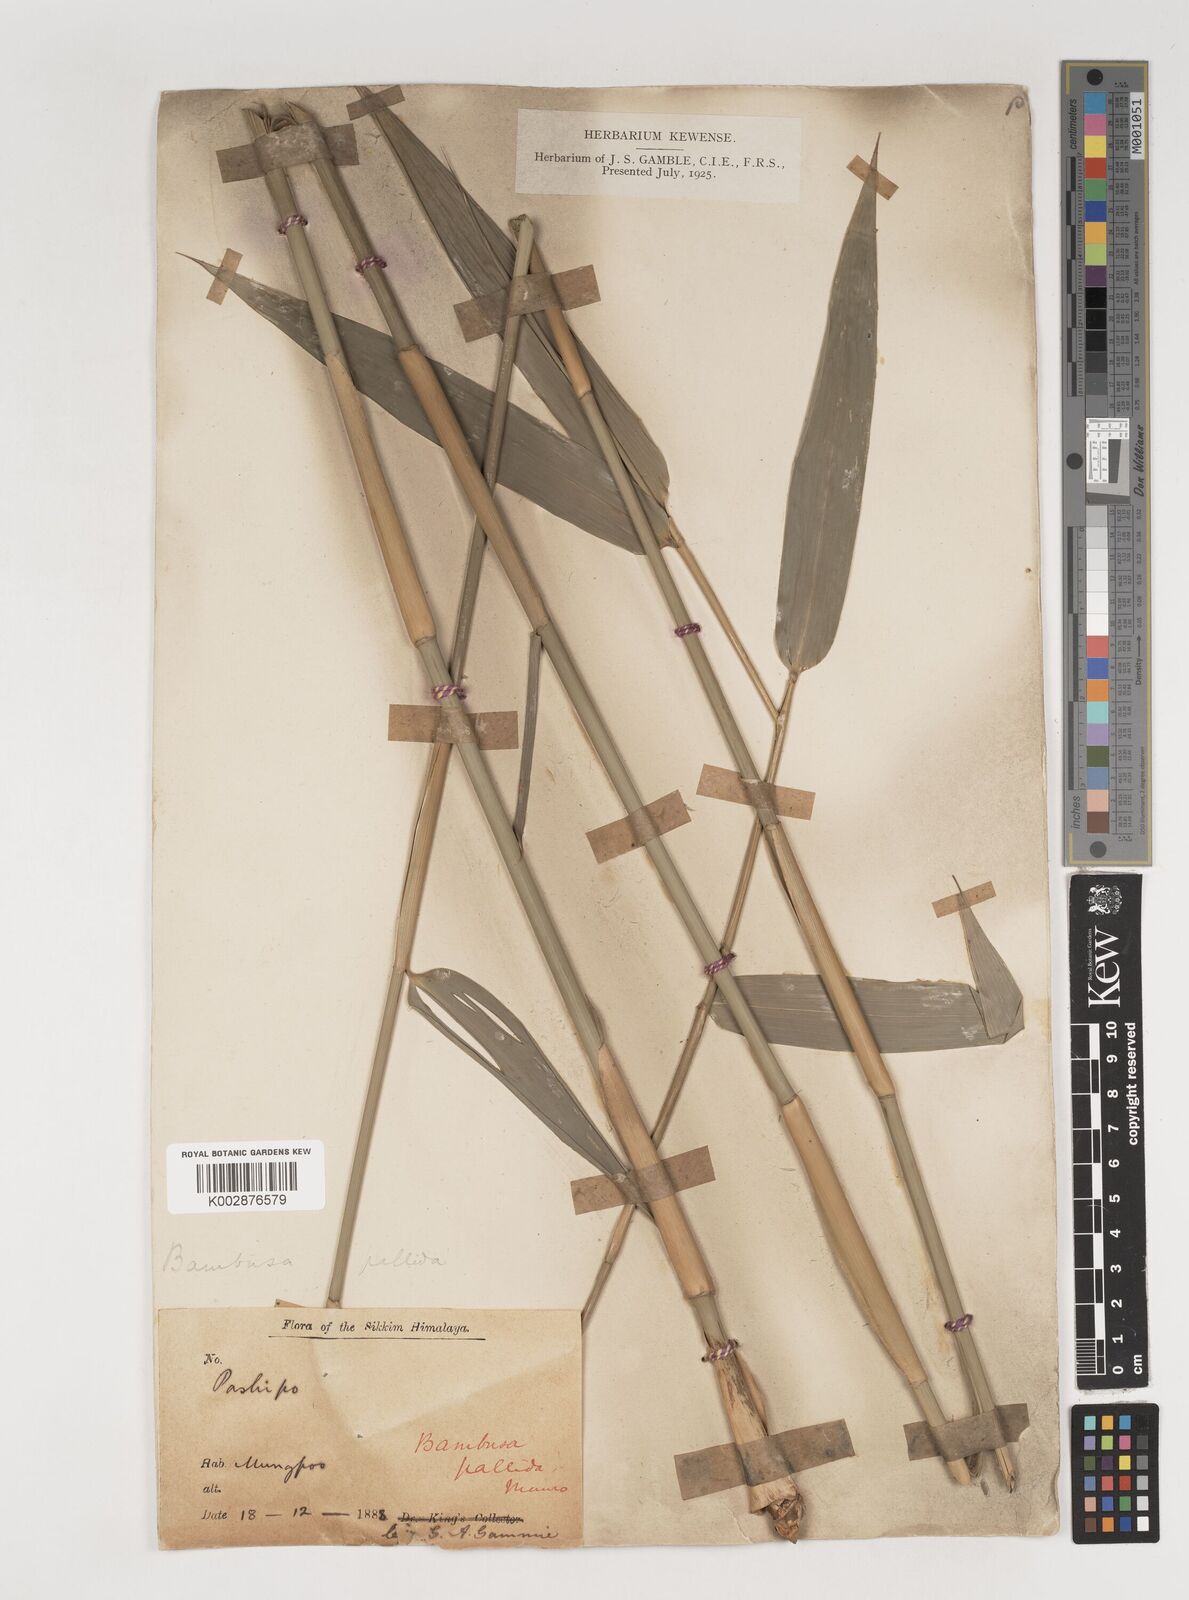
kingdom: Plantae
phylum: Tracheophyta
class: Liliopsida
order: Poales
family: Poaceae
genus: Bambusa
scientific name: Bambusa nepalensis
